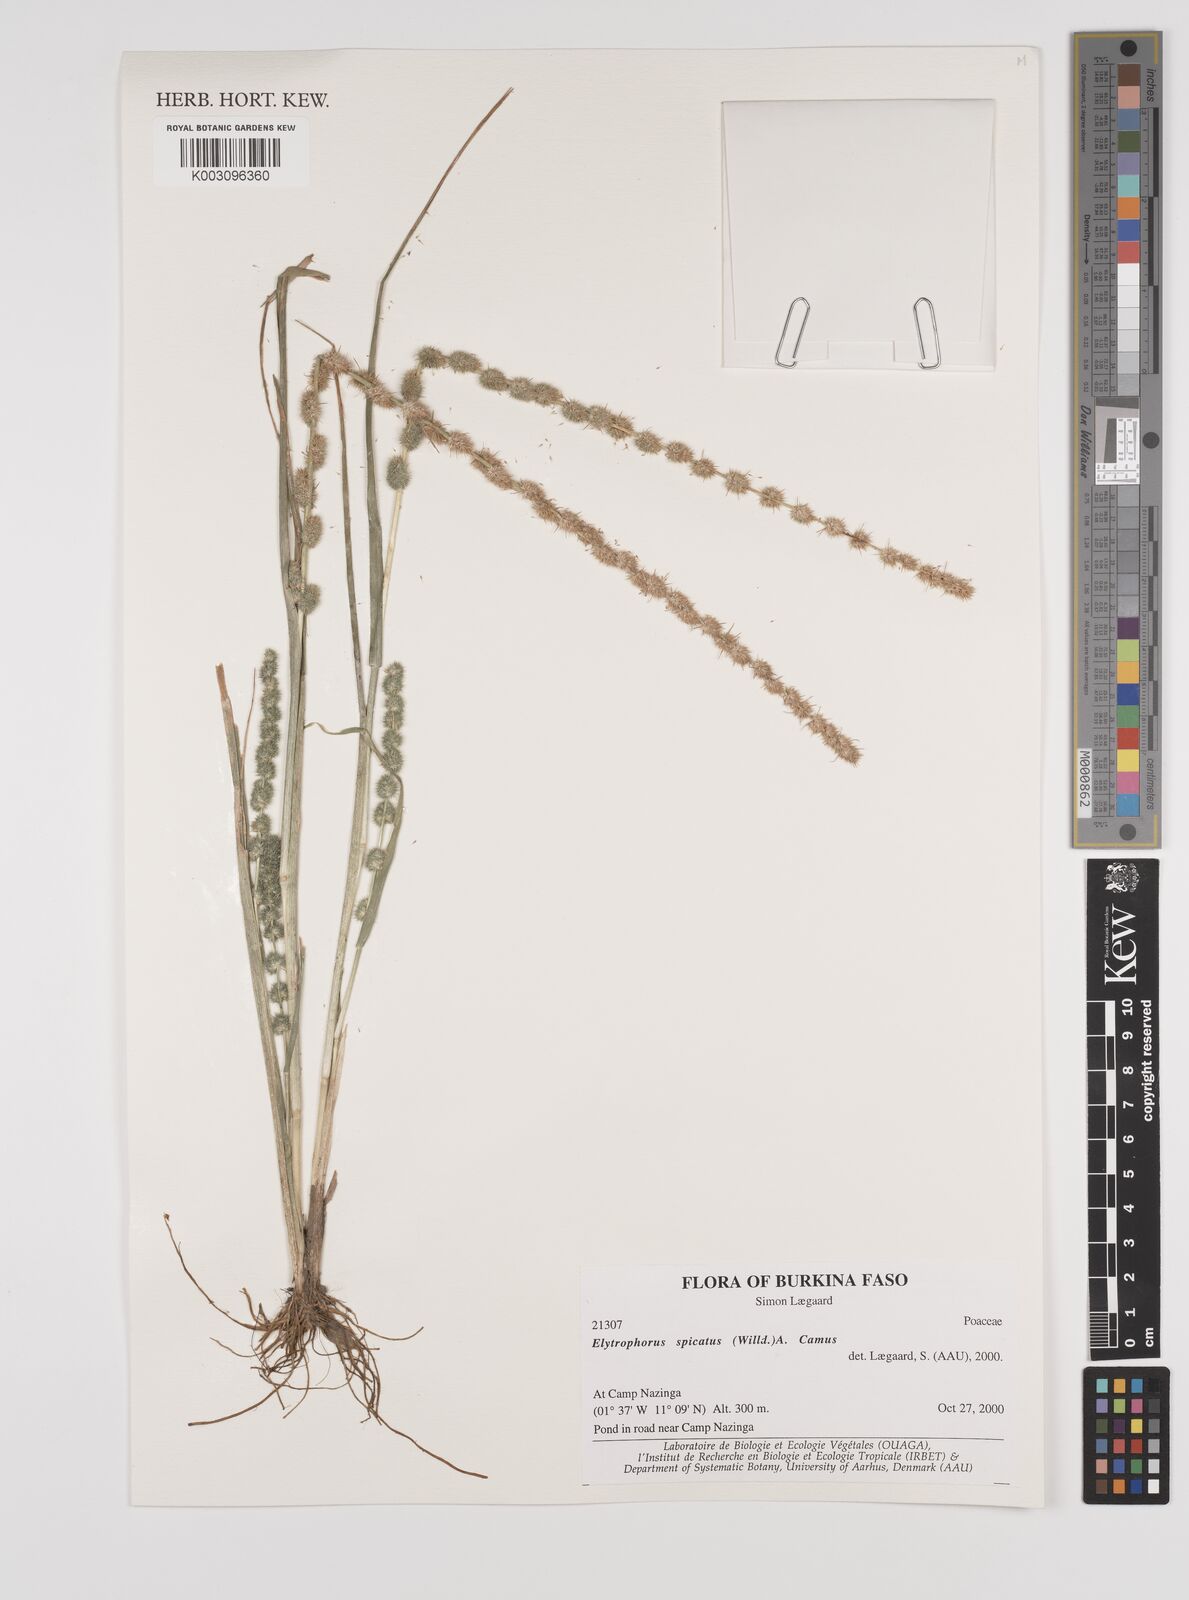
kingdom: Plantae
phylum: Tracheophyta
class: Liliopsida
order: Poales
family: Poaceae
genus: Elytrophorus
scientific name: Elytrophorus spicatus
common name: Spike grass
